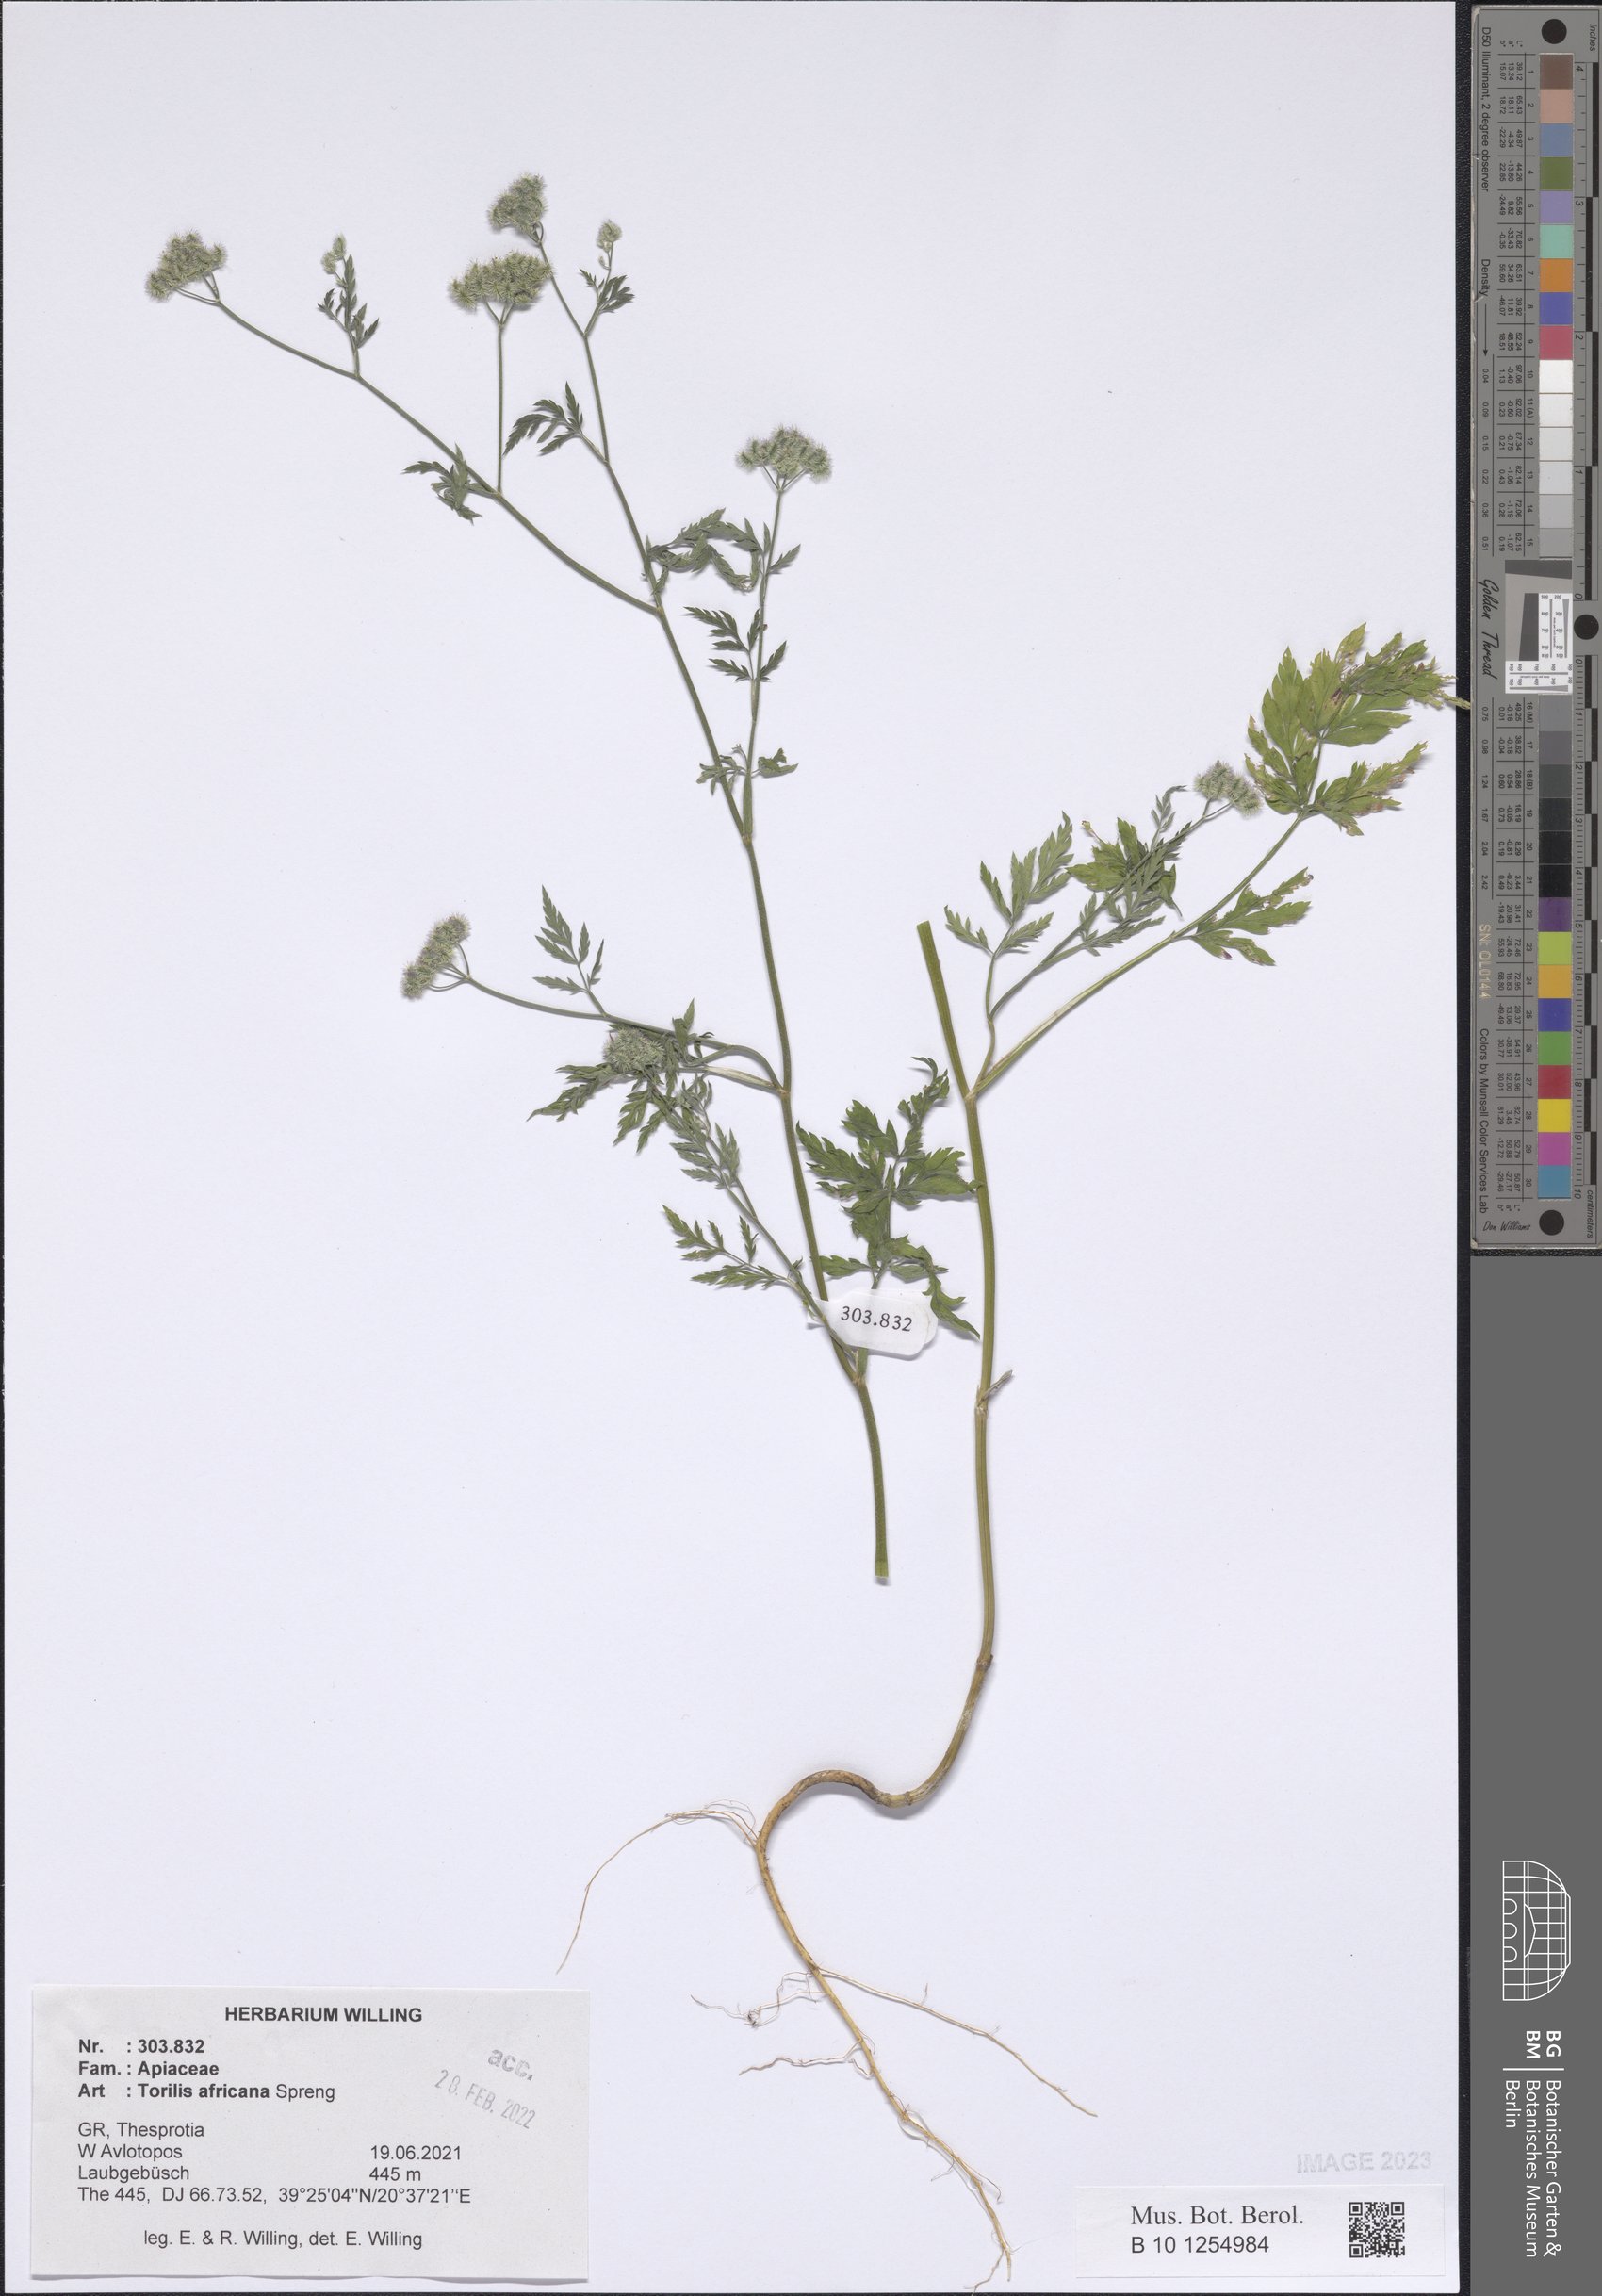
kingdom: Plantae
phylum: Tracheophyta
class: Magnoliopsida
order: Apiales
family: Apiaceae
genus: Torilis
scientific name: Torilis africana
